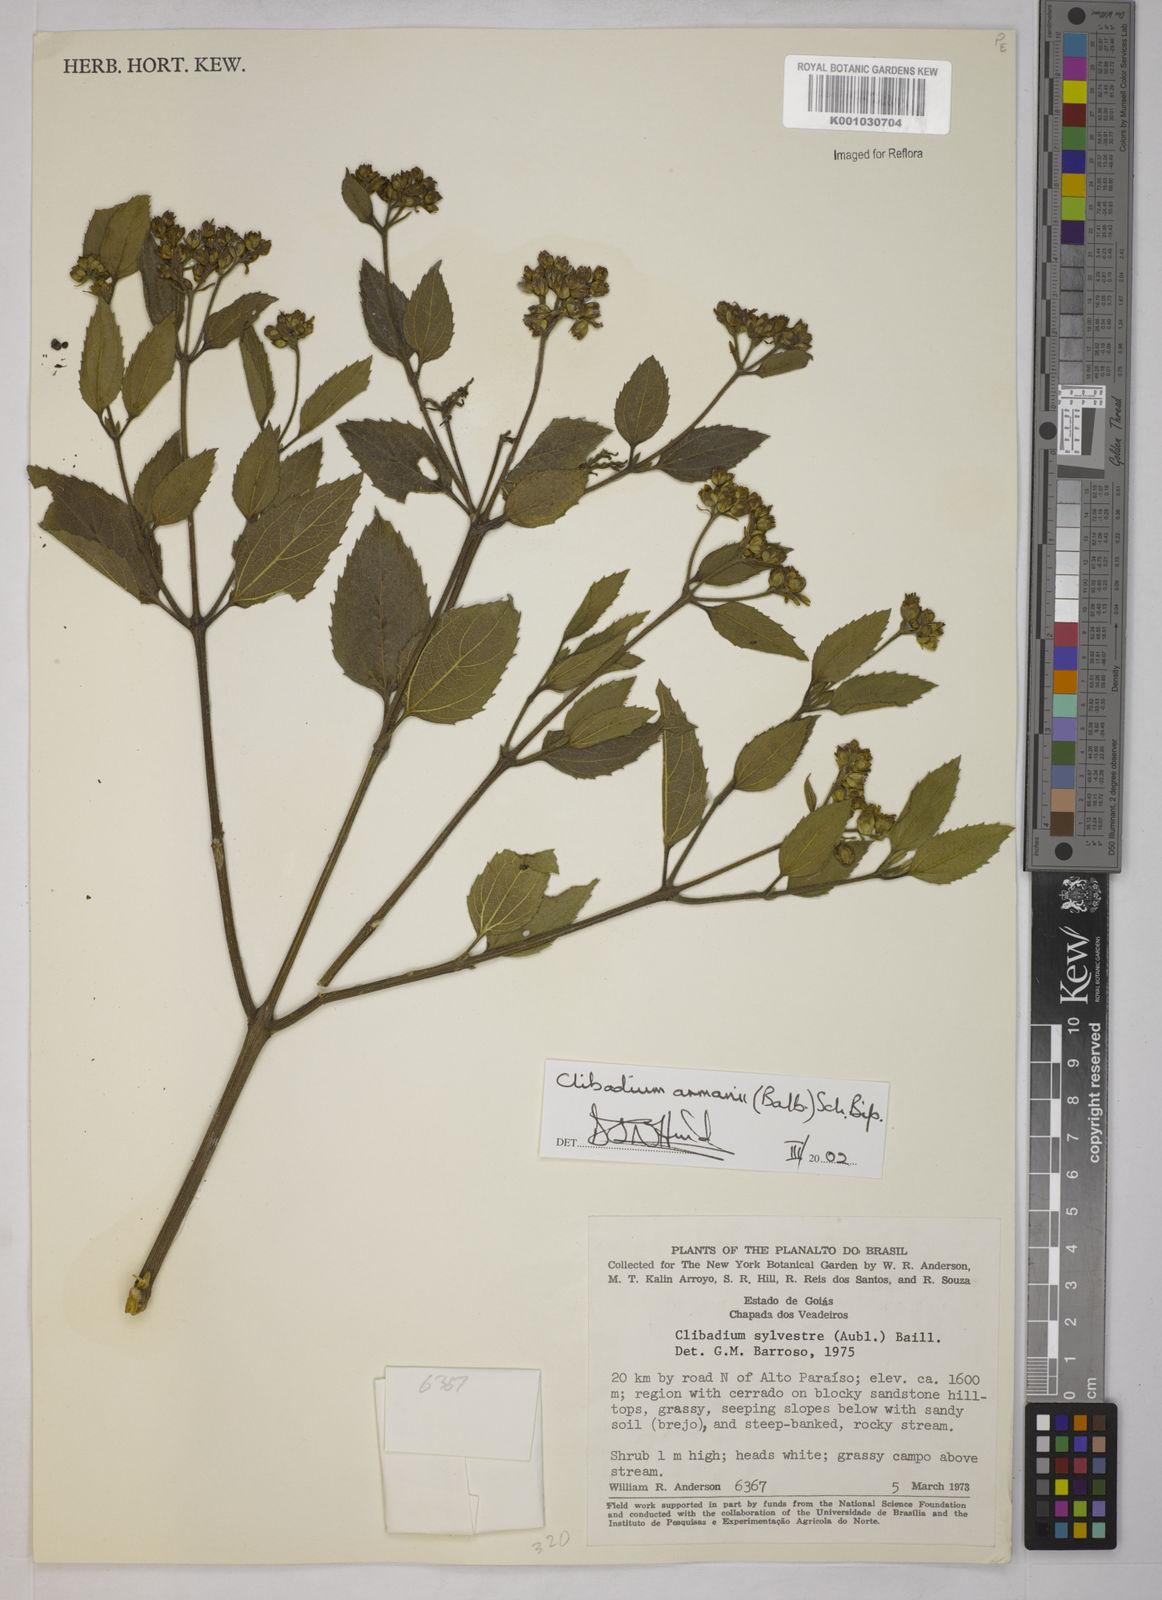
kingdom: Plantae
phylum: Tracheophyta
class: Magnoliopsida
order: Asterales
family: Asteraceae
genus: Clibadium
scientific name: Clibadium armanii
